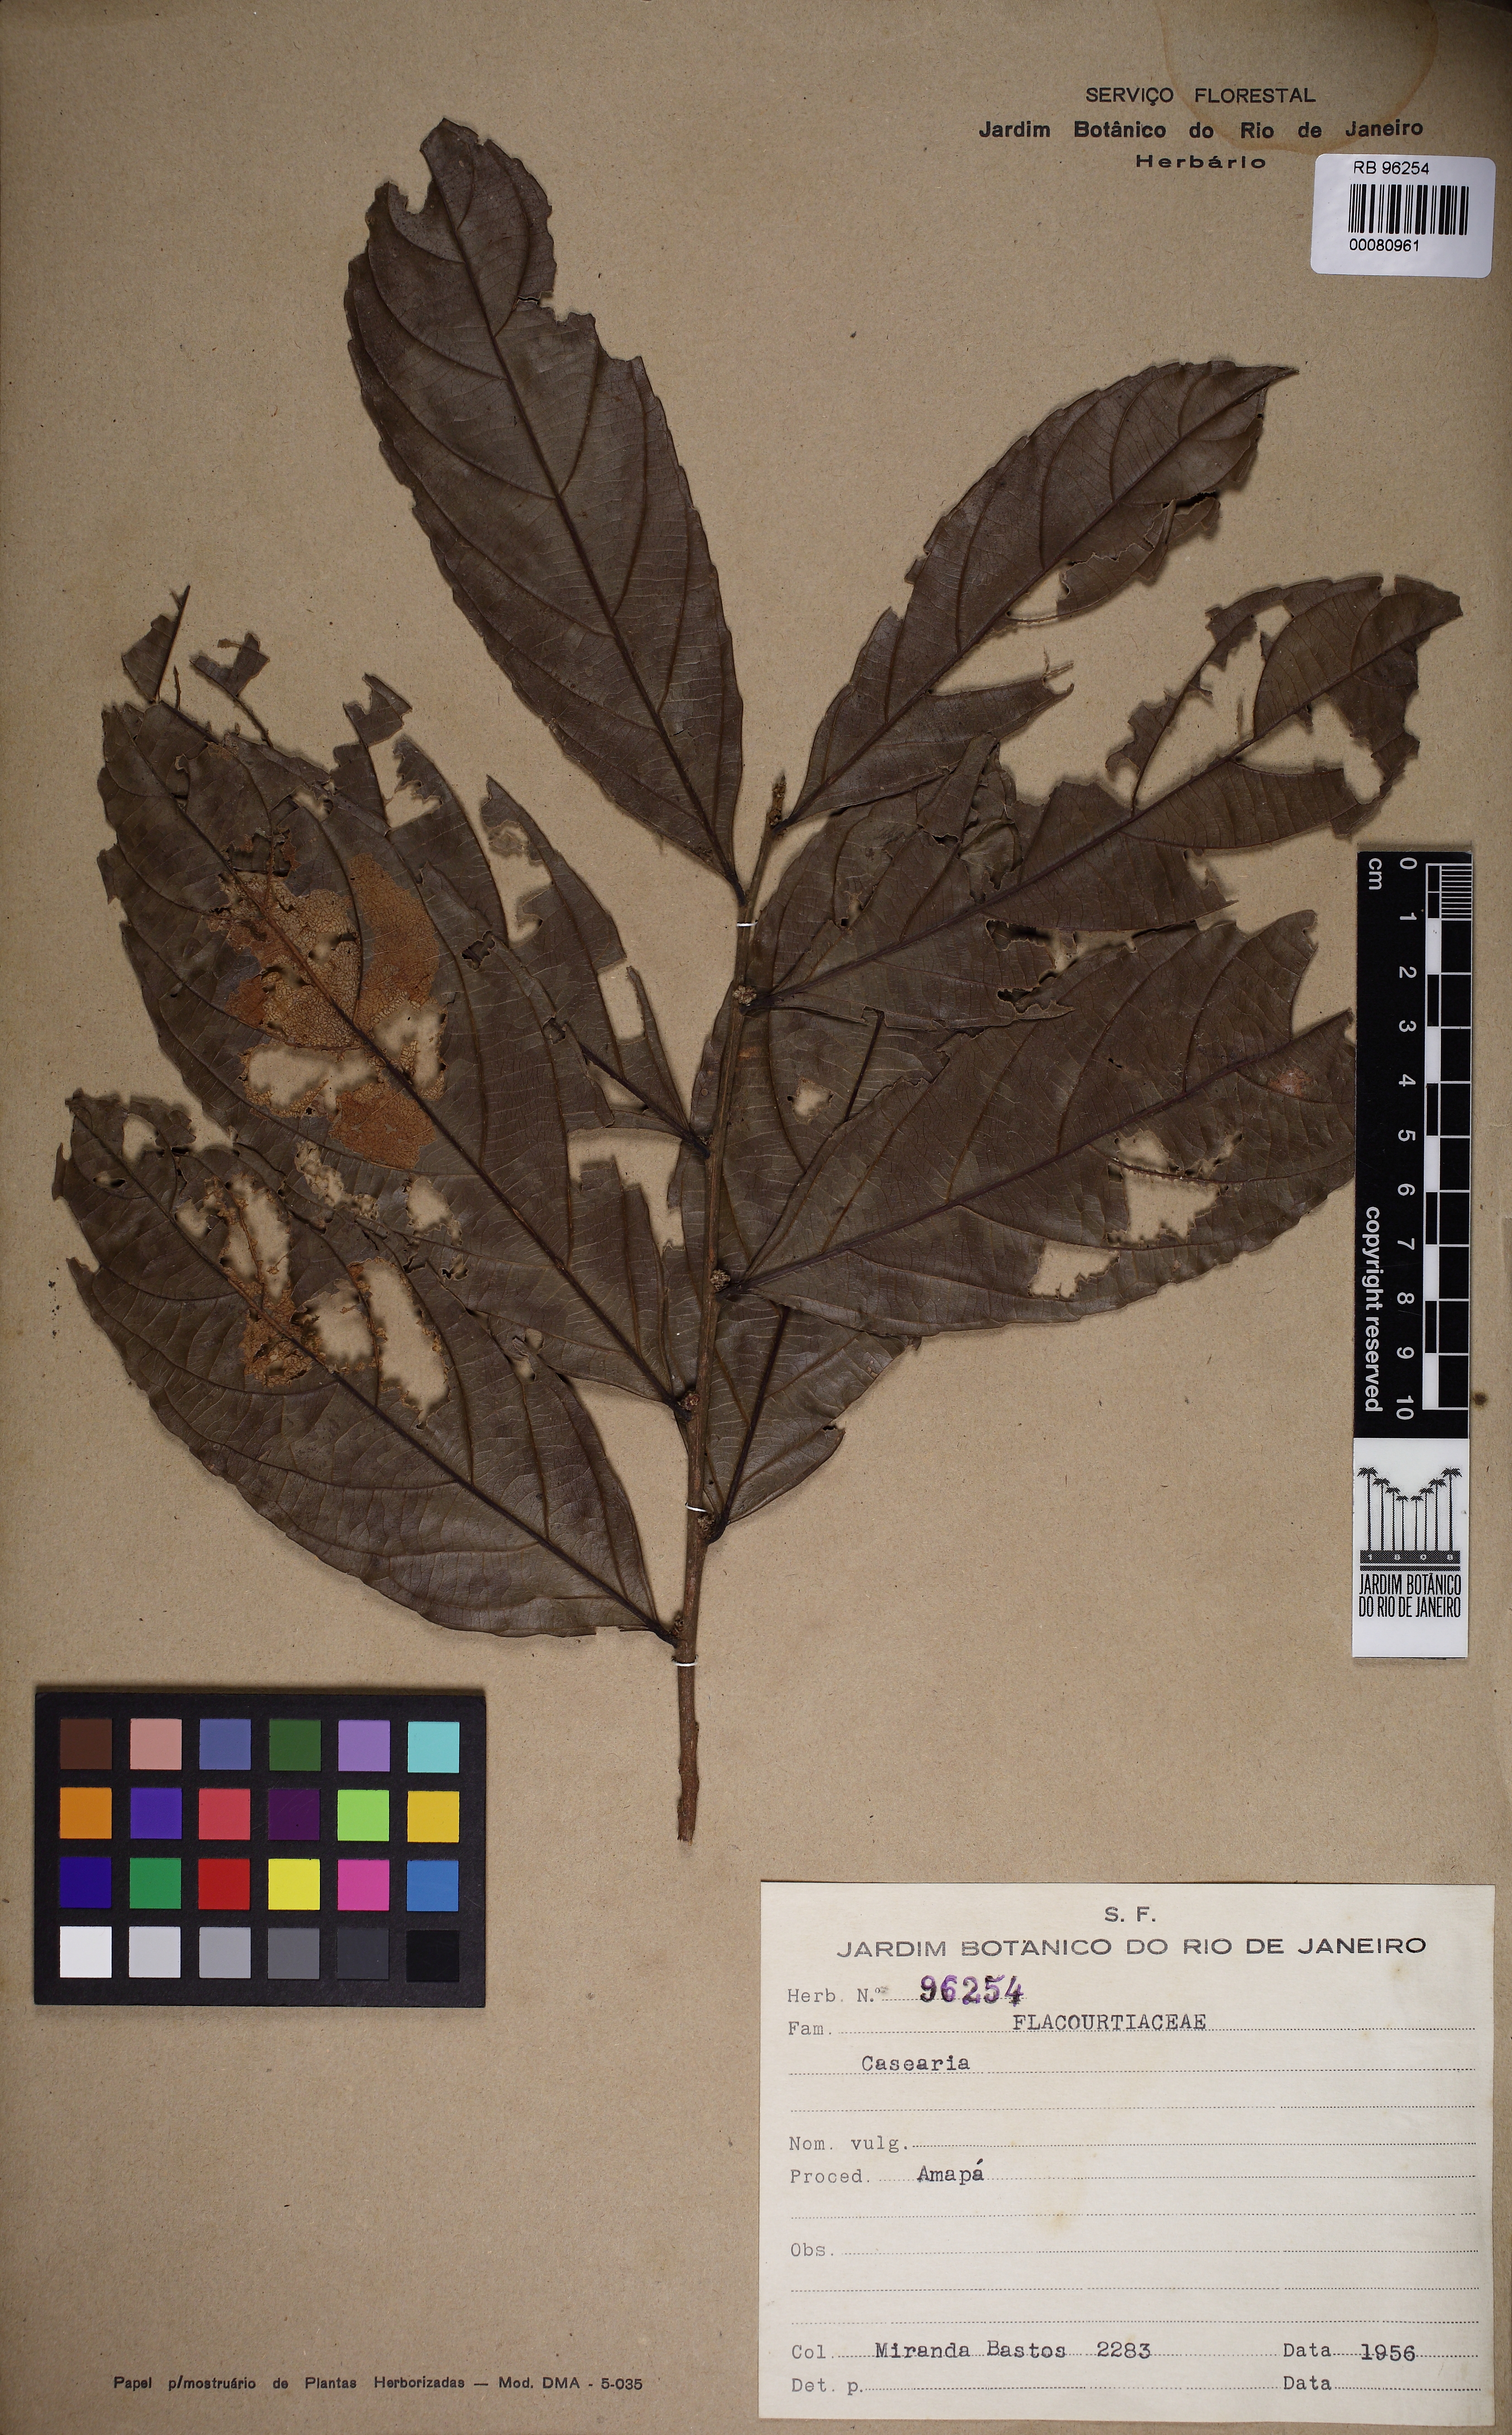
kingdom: Plantae
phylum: Tracheophyta
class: Magnoliopsida
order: Malpighiales
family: Salicaceae
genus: Piparea
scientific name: Piparea multiflora
